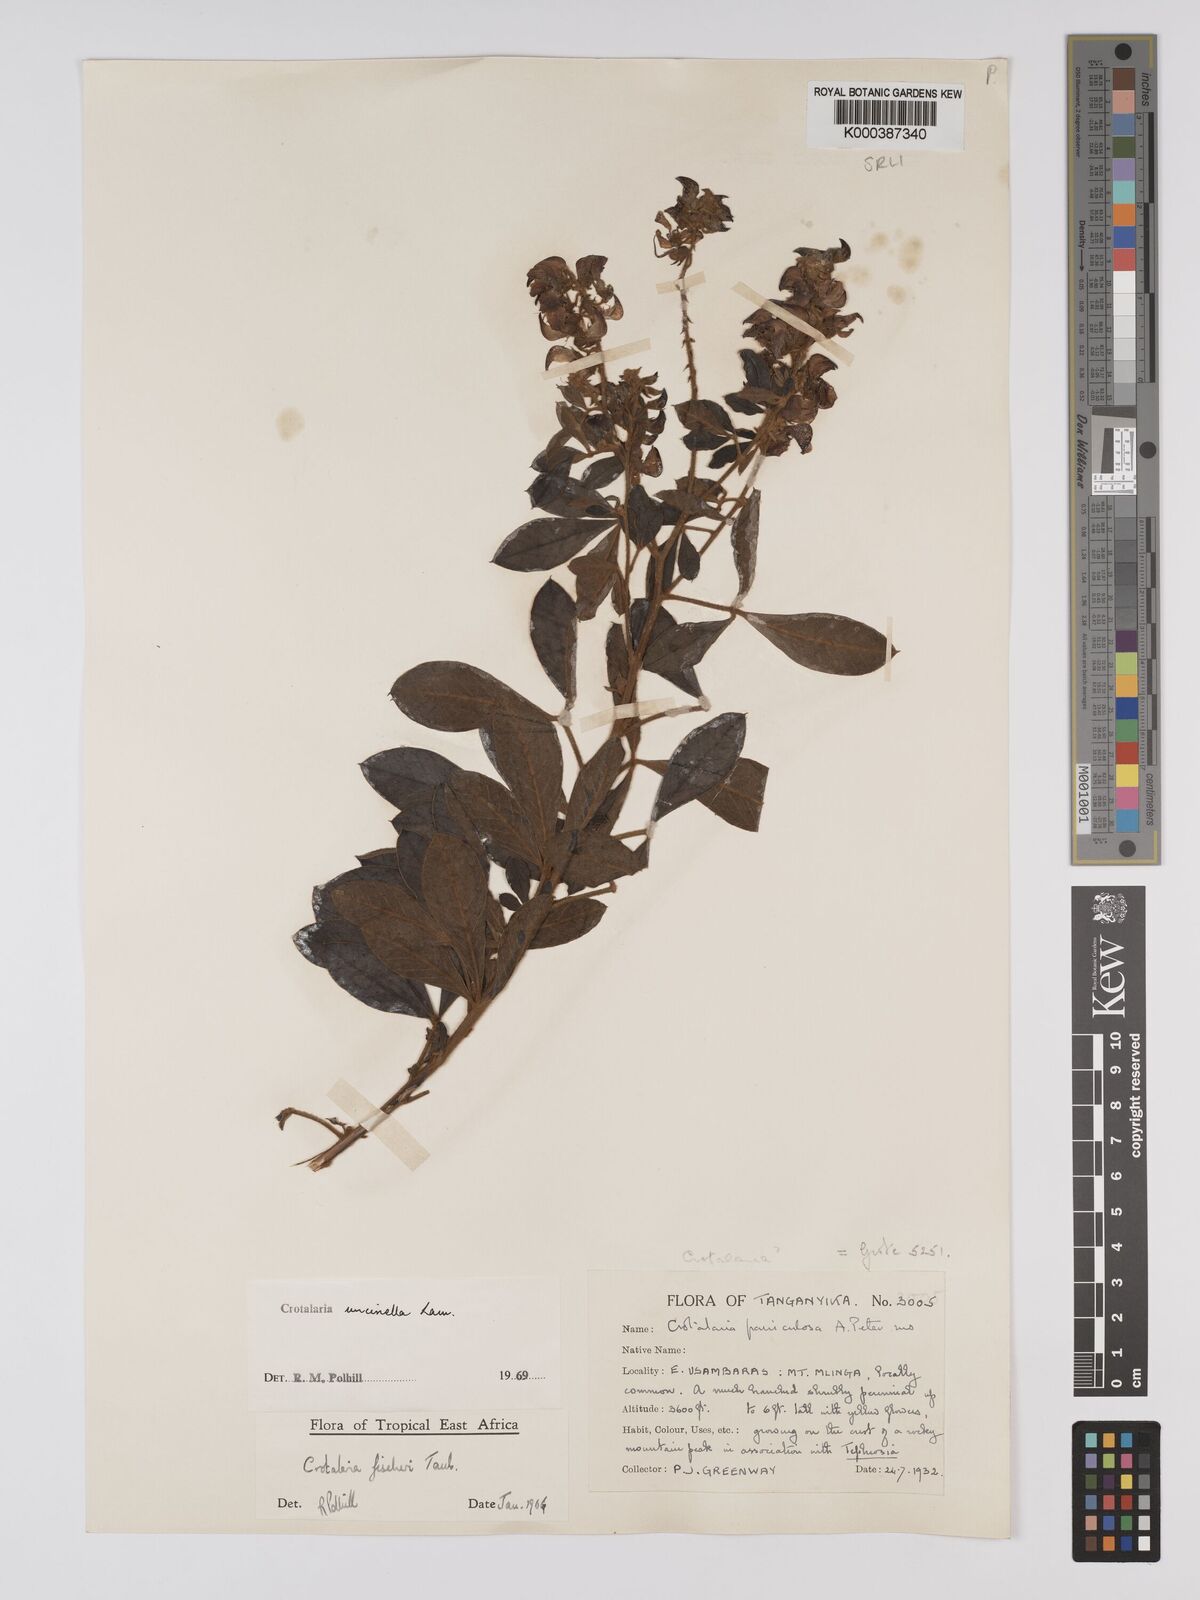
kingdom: Plantae
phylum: Tracheophyta
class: Magnoliopsida
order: Fabales
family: Fabaceae
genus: Crotalaria
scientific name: Crotalaria uncinella
